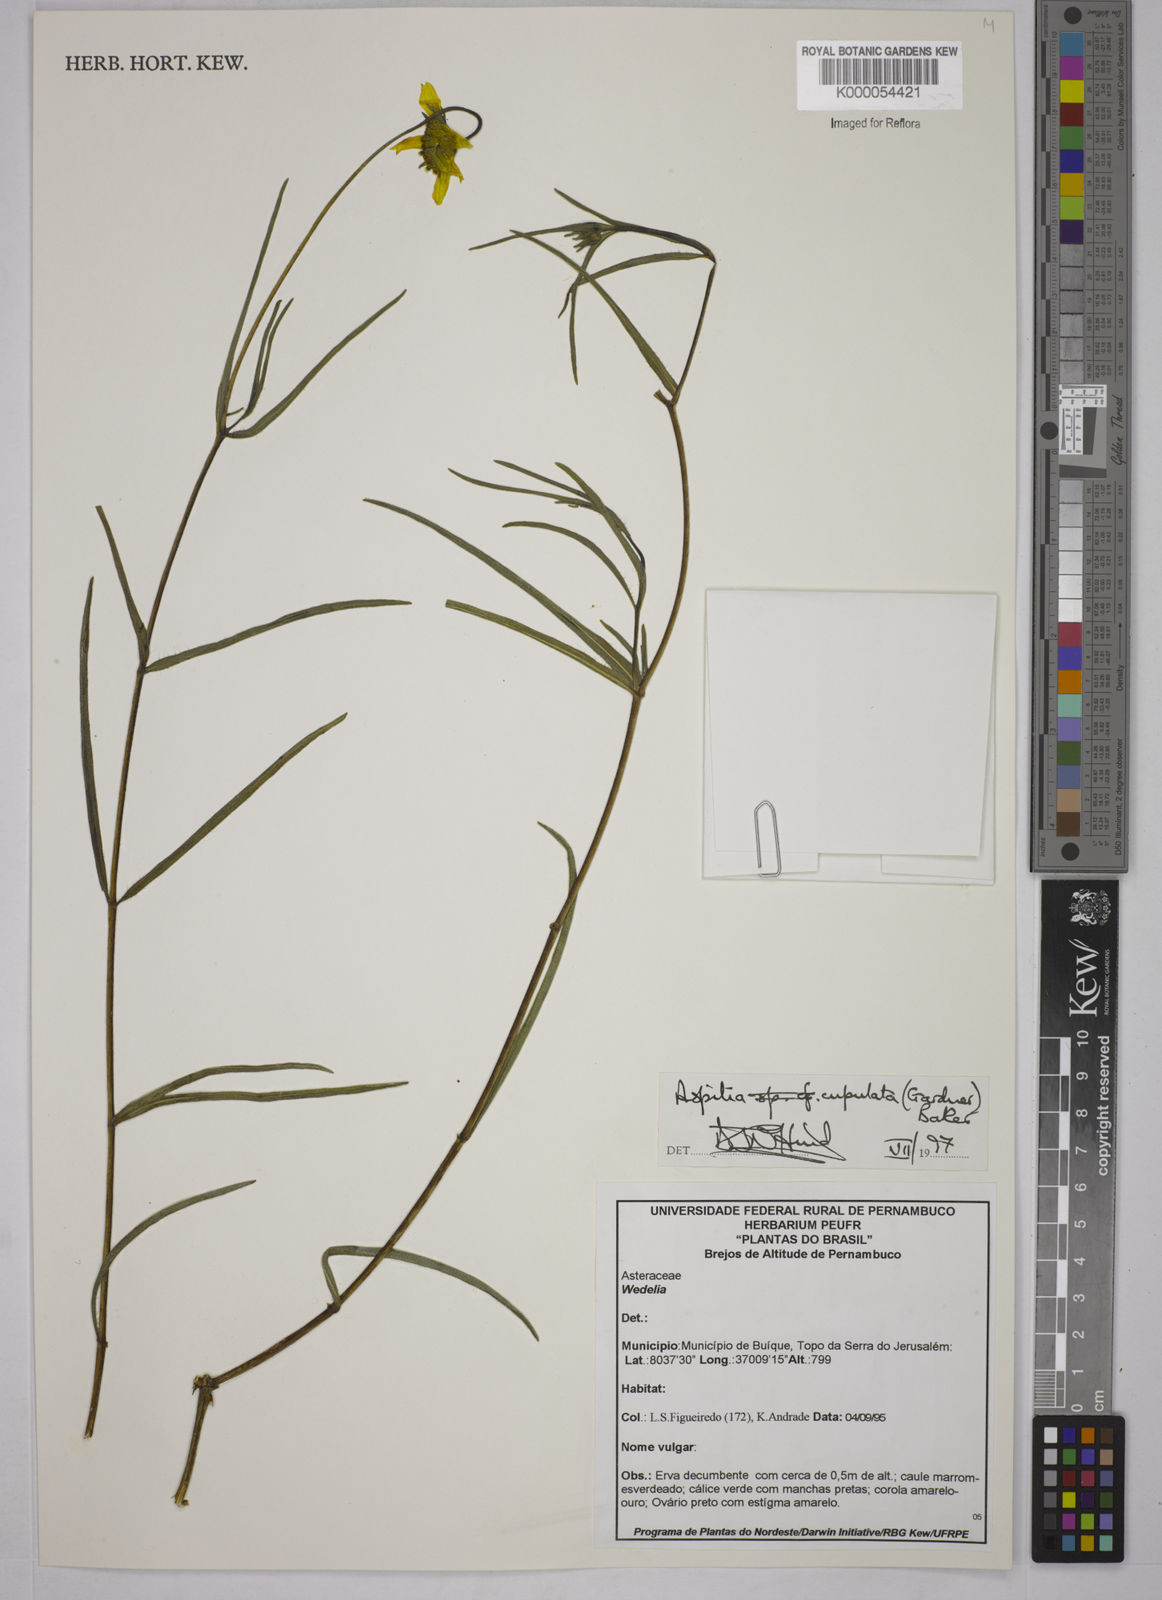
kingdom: Plantae
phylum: Tracheophyta
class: Magnoliopsida
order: Asterales
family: Asteraceae
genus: Wedelia
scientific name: Wedelia angustifolia
